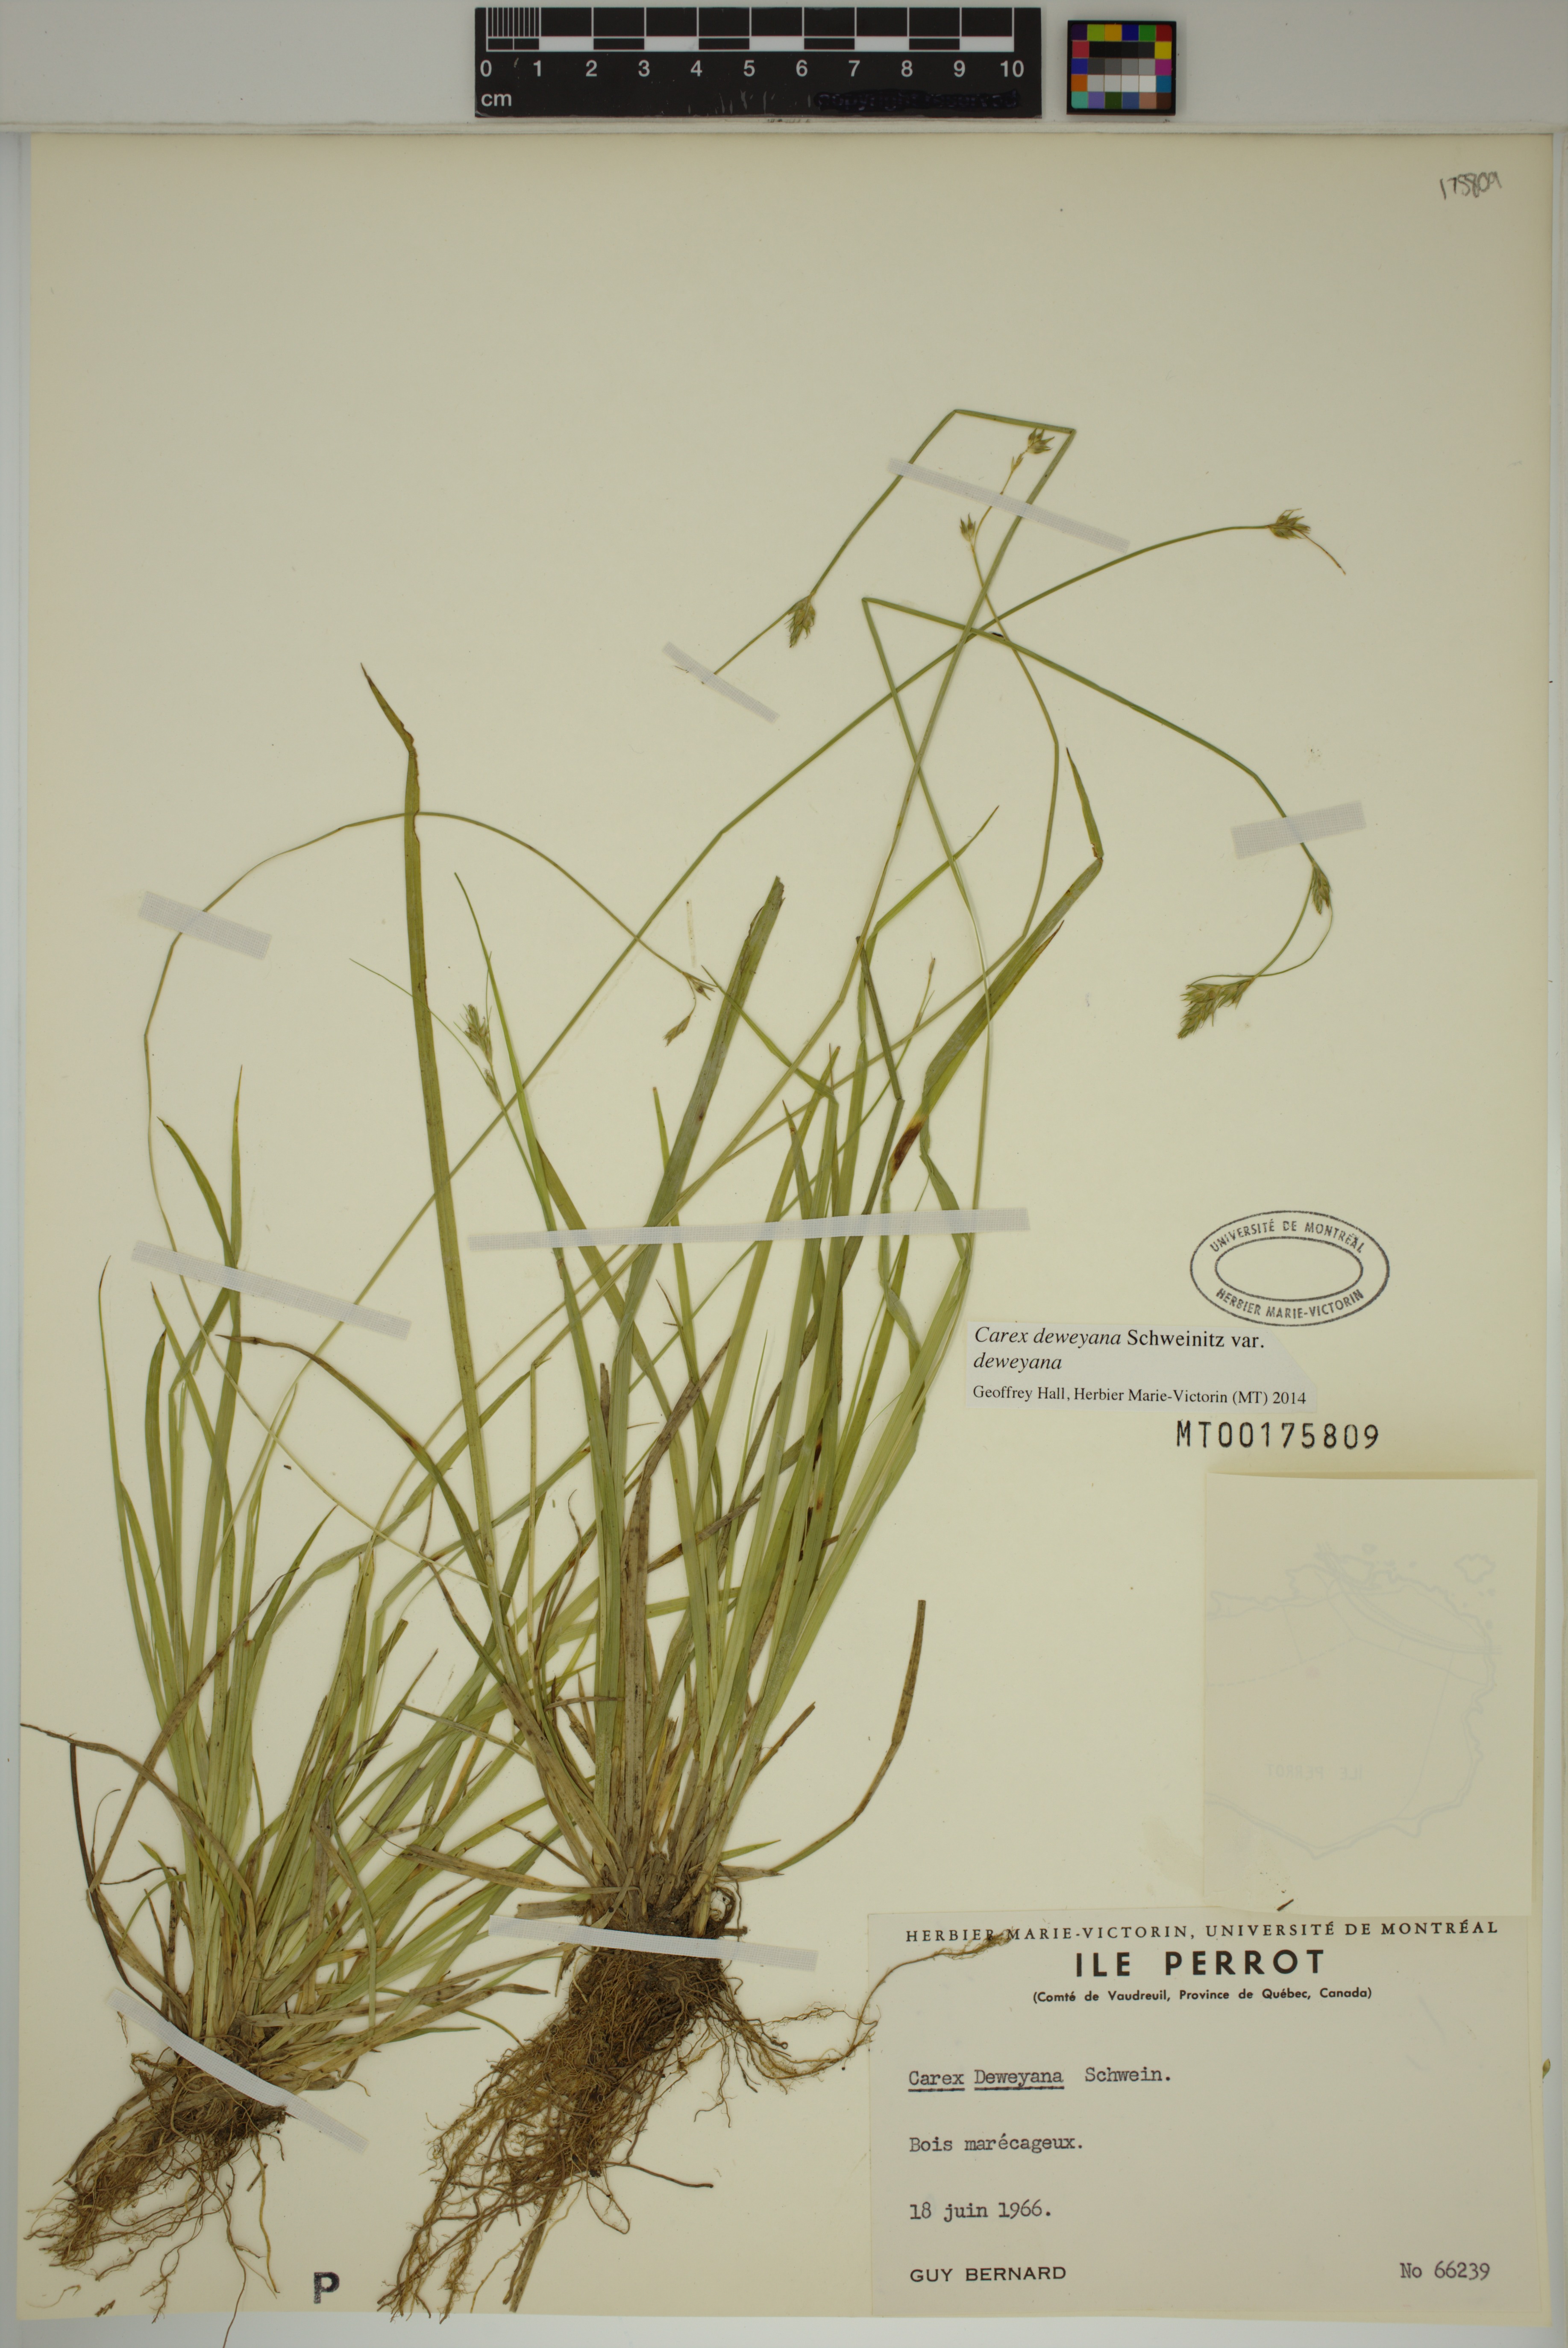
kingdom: Plantae
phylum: Tracheophyta
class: Liliopsida
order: Poales
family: Cyperaceae
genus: Carex
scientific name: Carex deweyana
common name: Dewey's sedge
